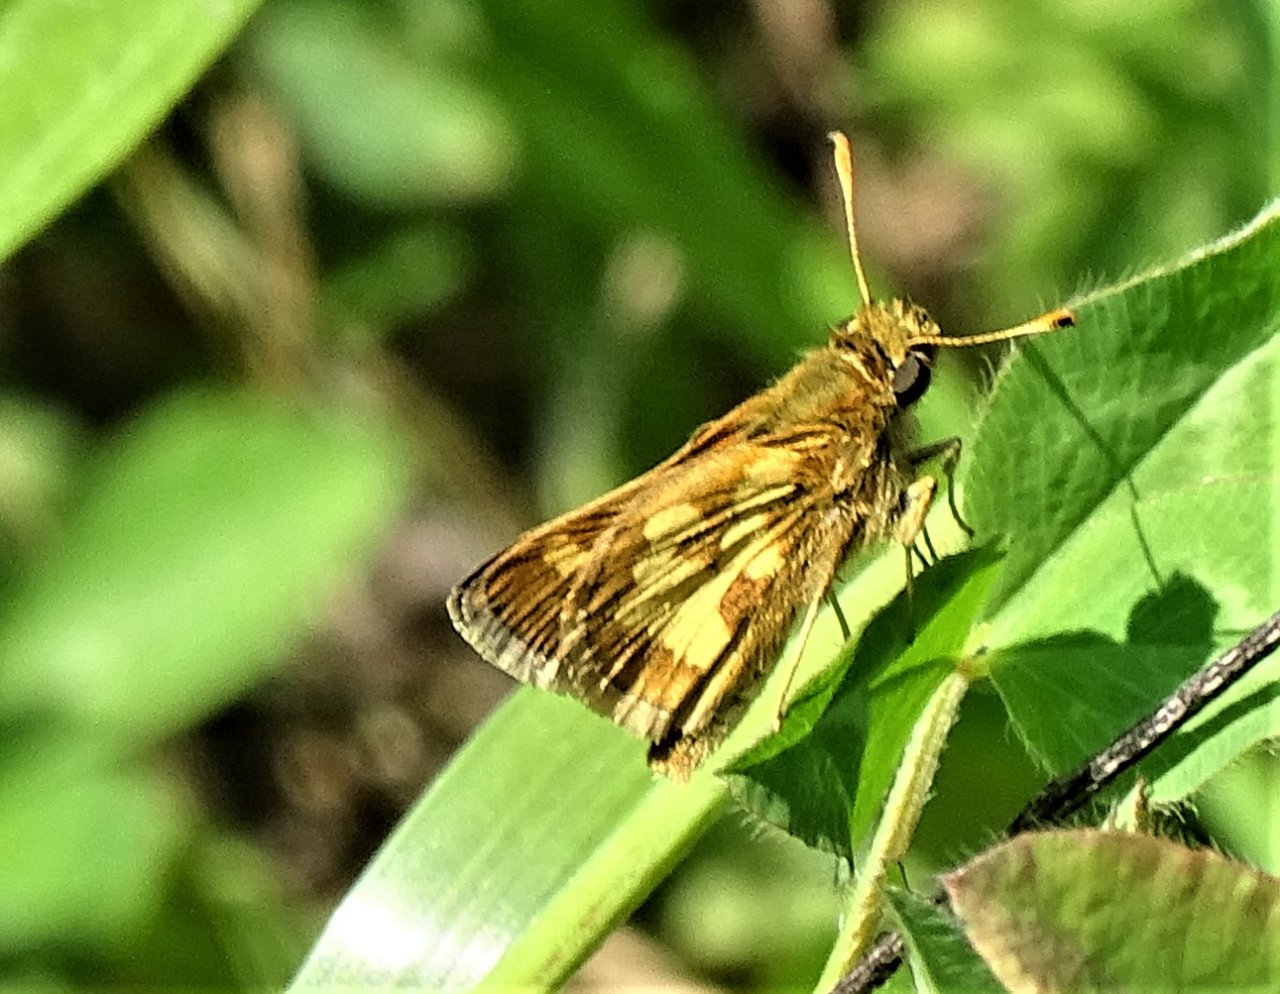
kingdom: Animalia
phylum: Arthropoda
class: Insecta
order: Lepidoptera
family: Hesperiidae
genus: Polites
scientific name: Polites coras
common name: Peck's Skipper
